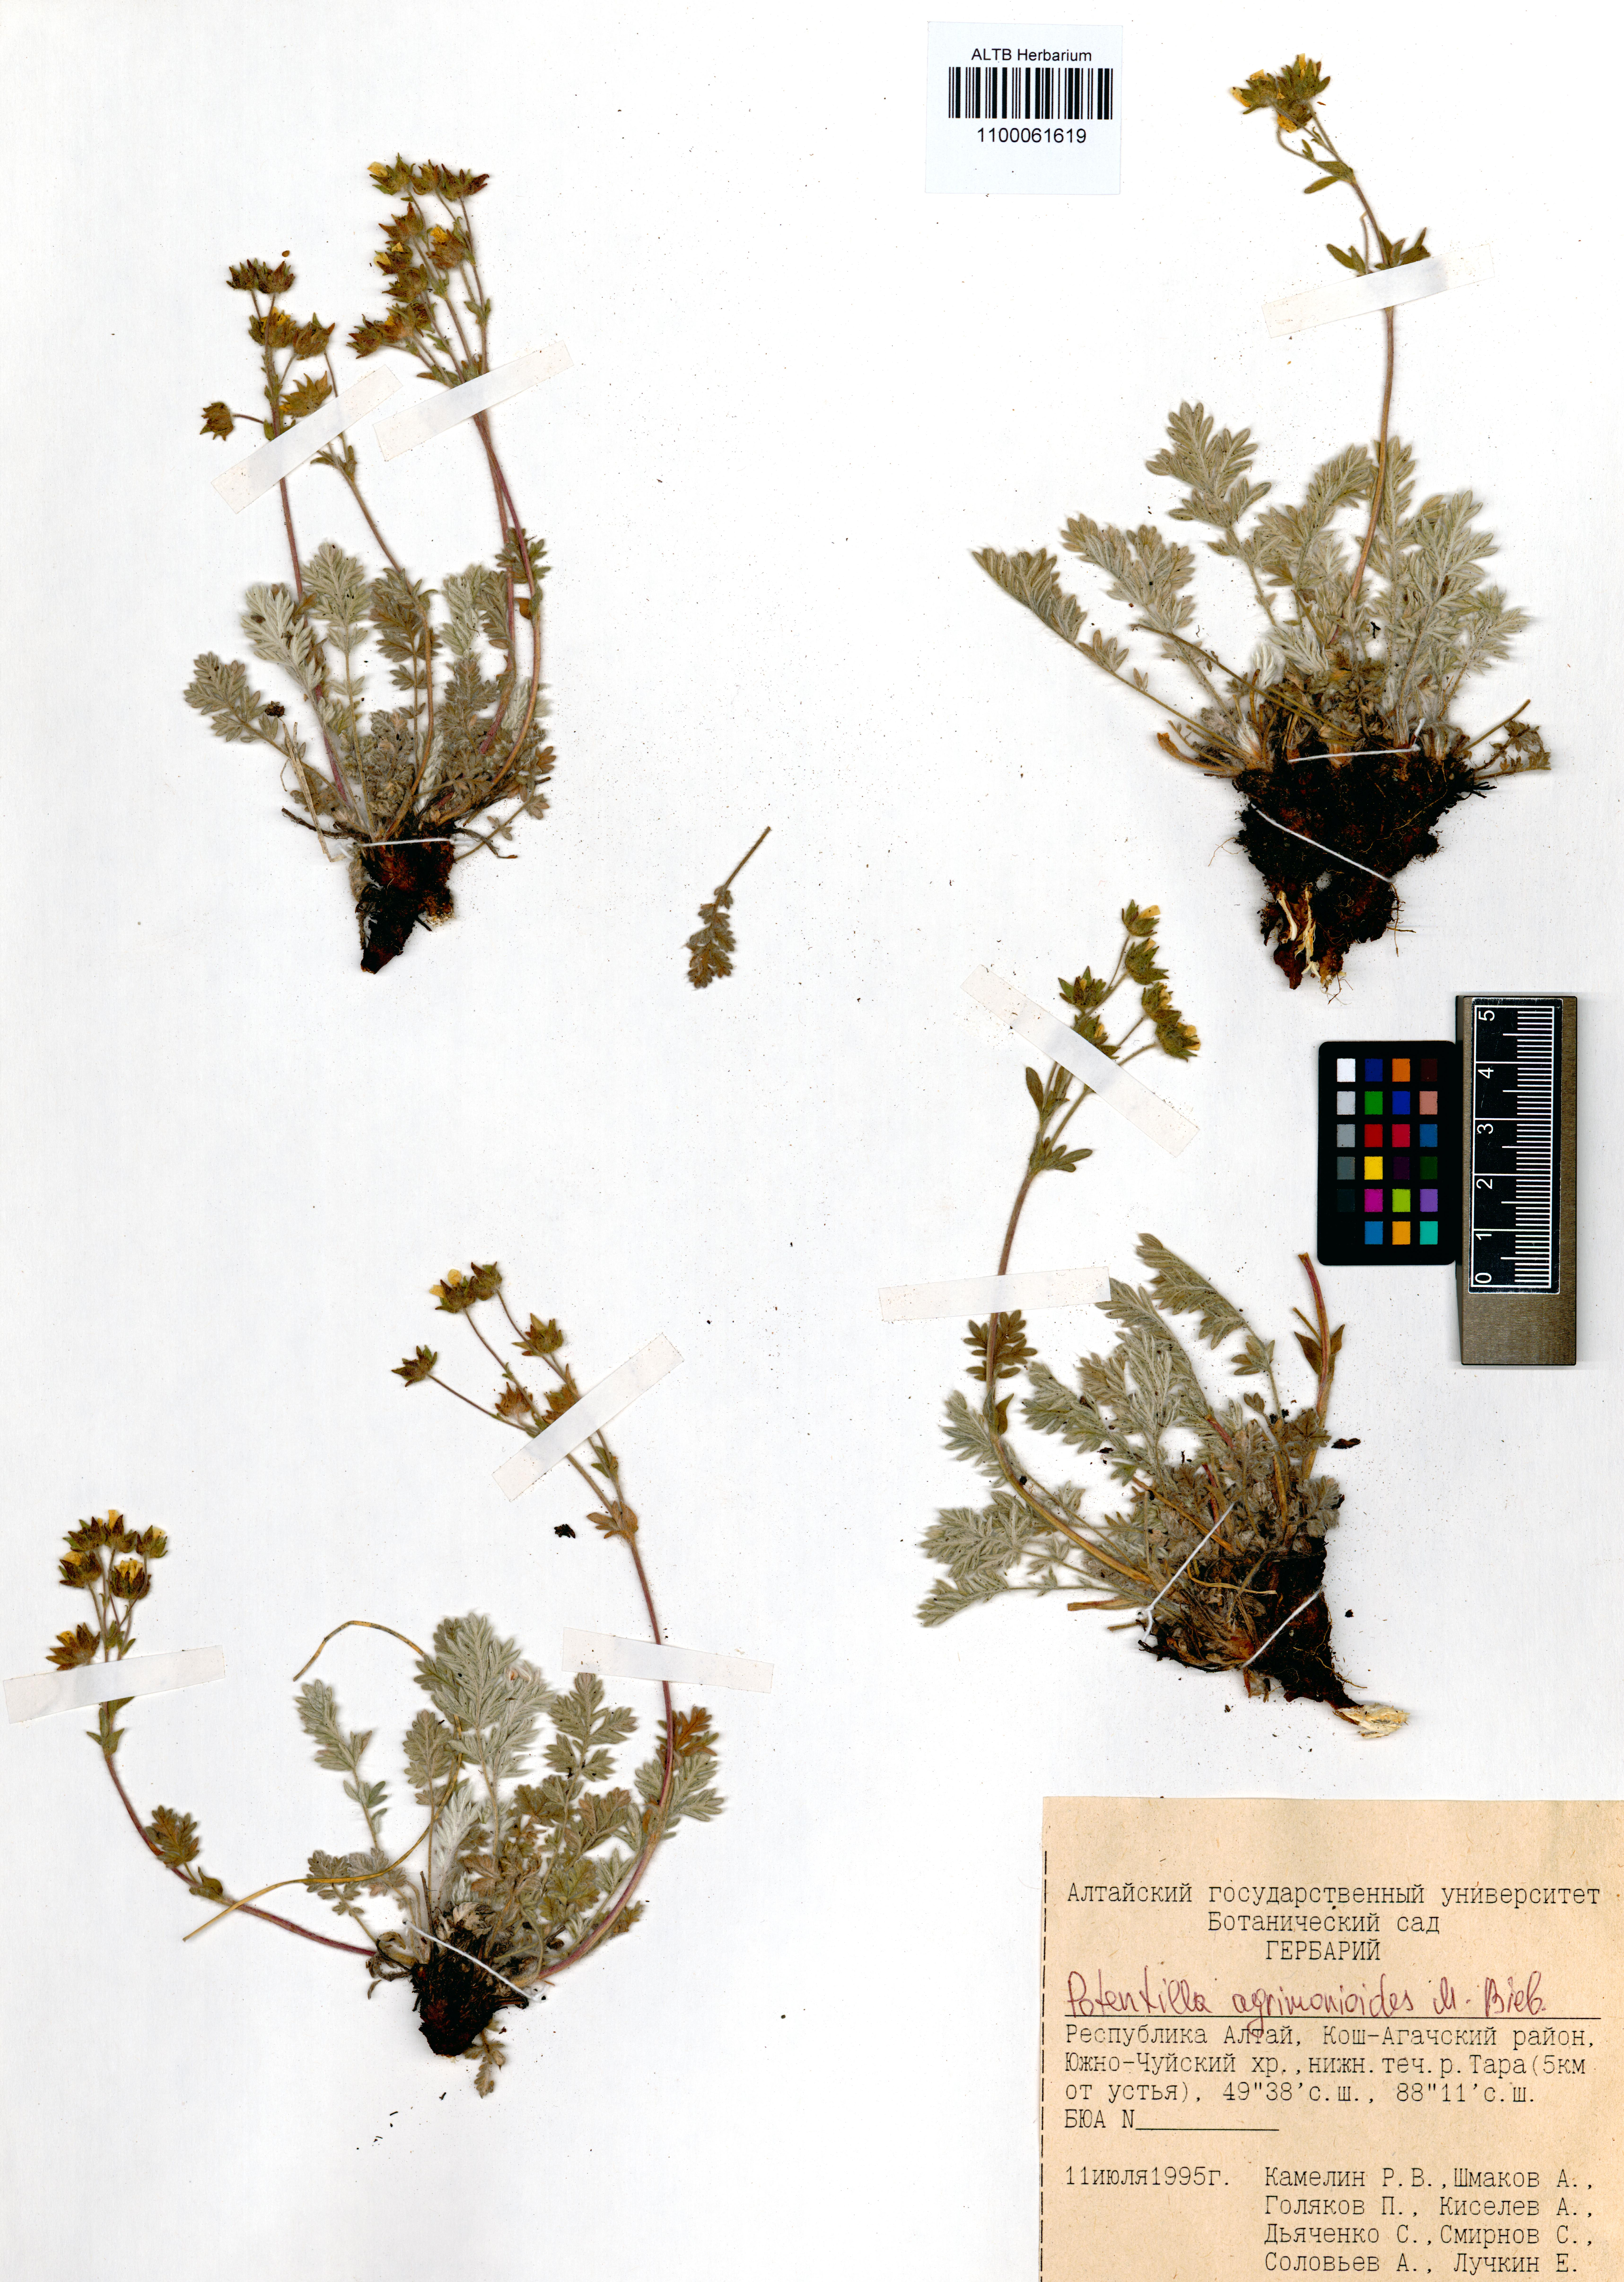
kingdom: Plantae
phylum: Tracheophyta
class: Magnoliopsida
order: Rosales
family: Rosaceae
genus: Potentilla
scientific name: Potentilla agrimonioides
